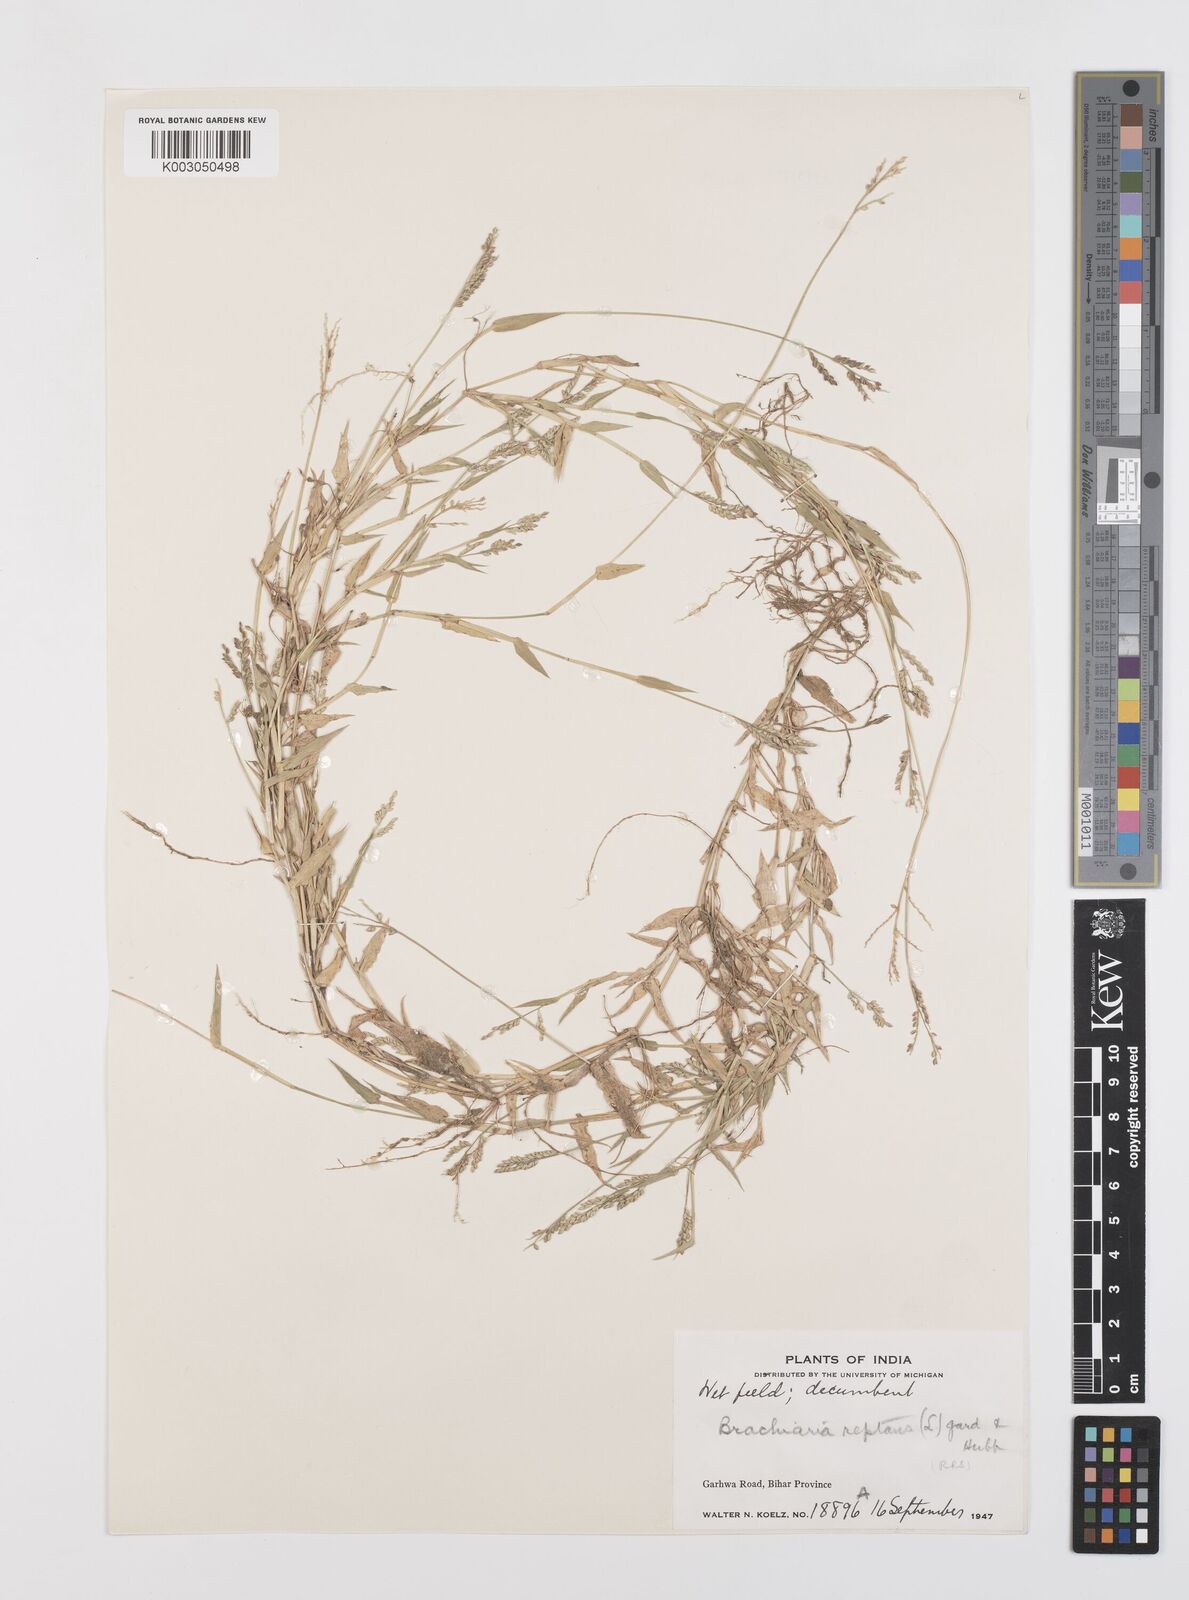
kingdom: Plantae
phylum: Tracheophyta
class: Liliopsida
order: Poales
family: Poaceae
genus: Urochloa
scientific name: Urochloa reptans
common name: Sprawling signalgrass
